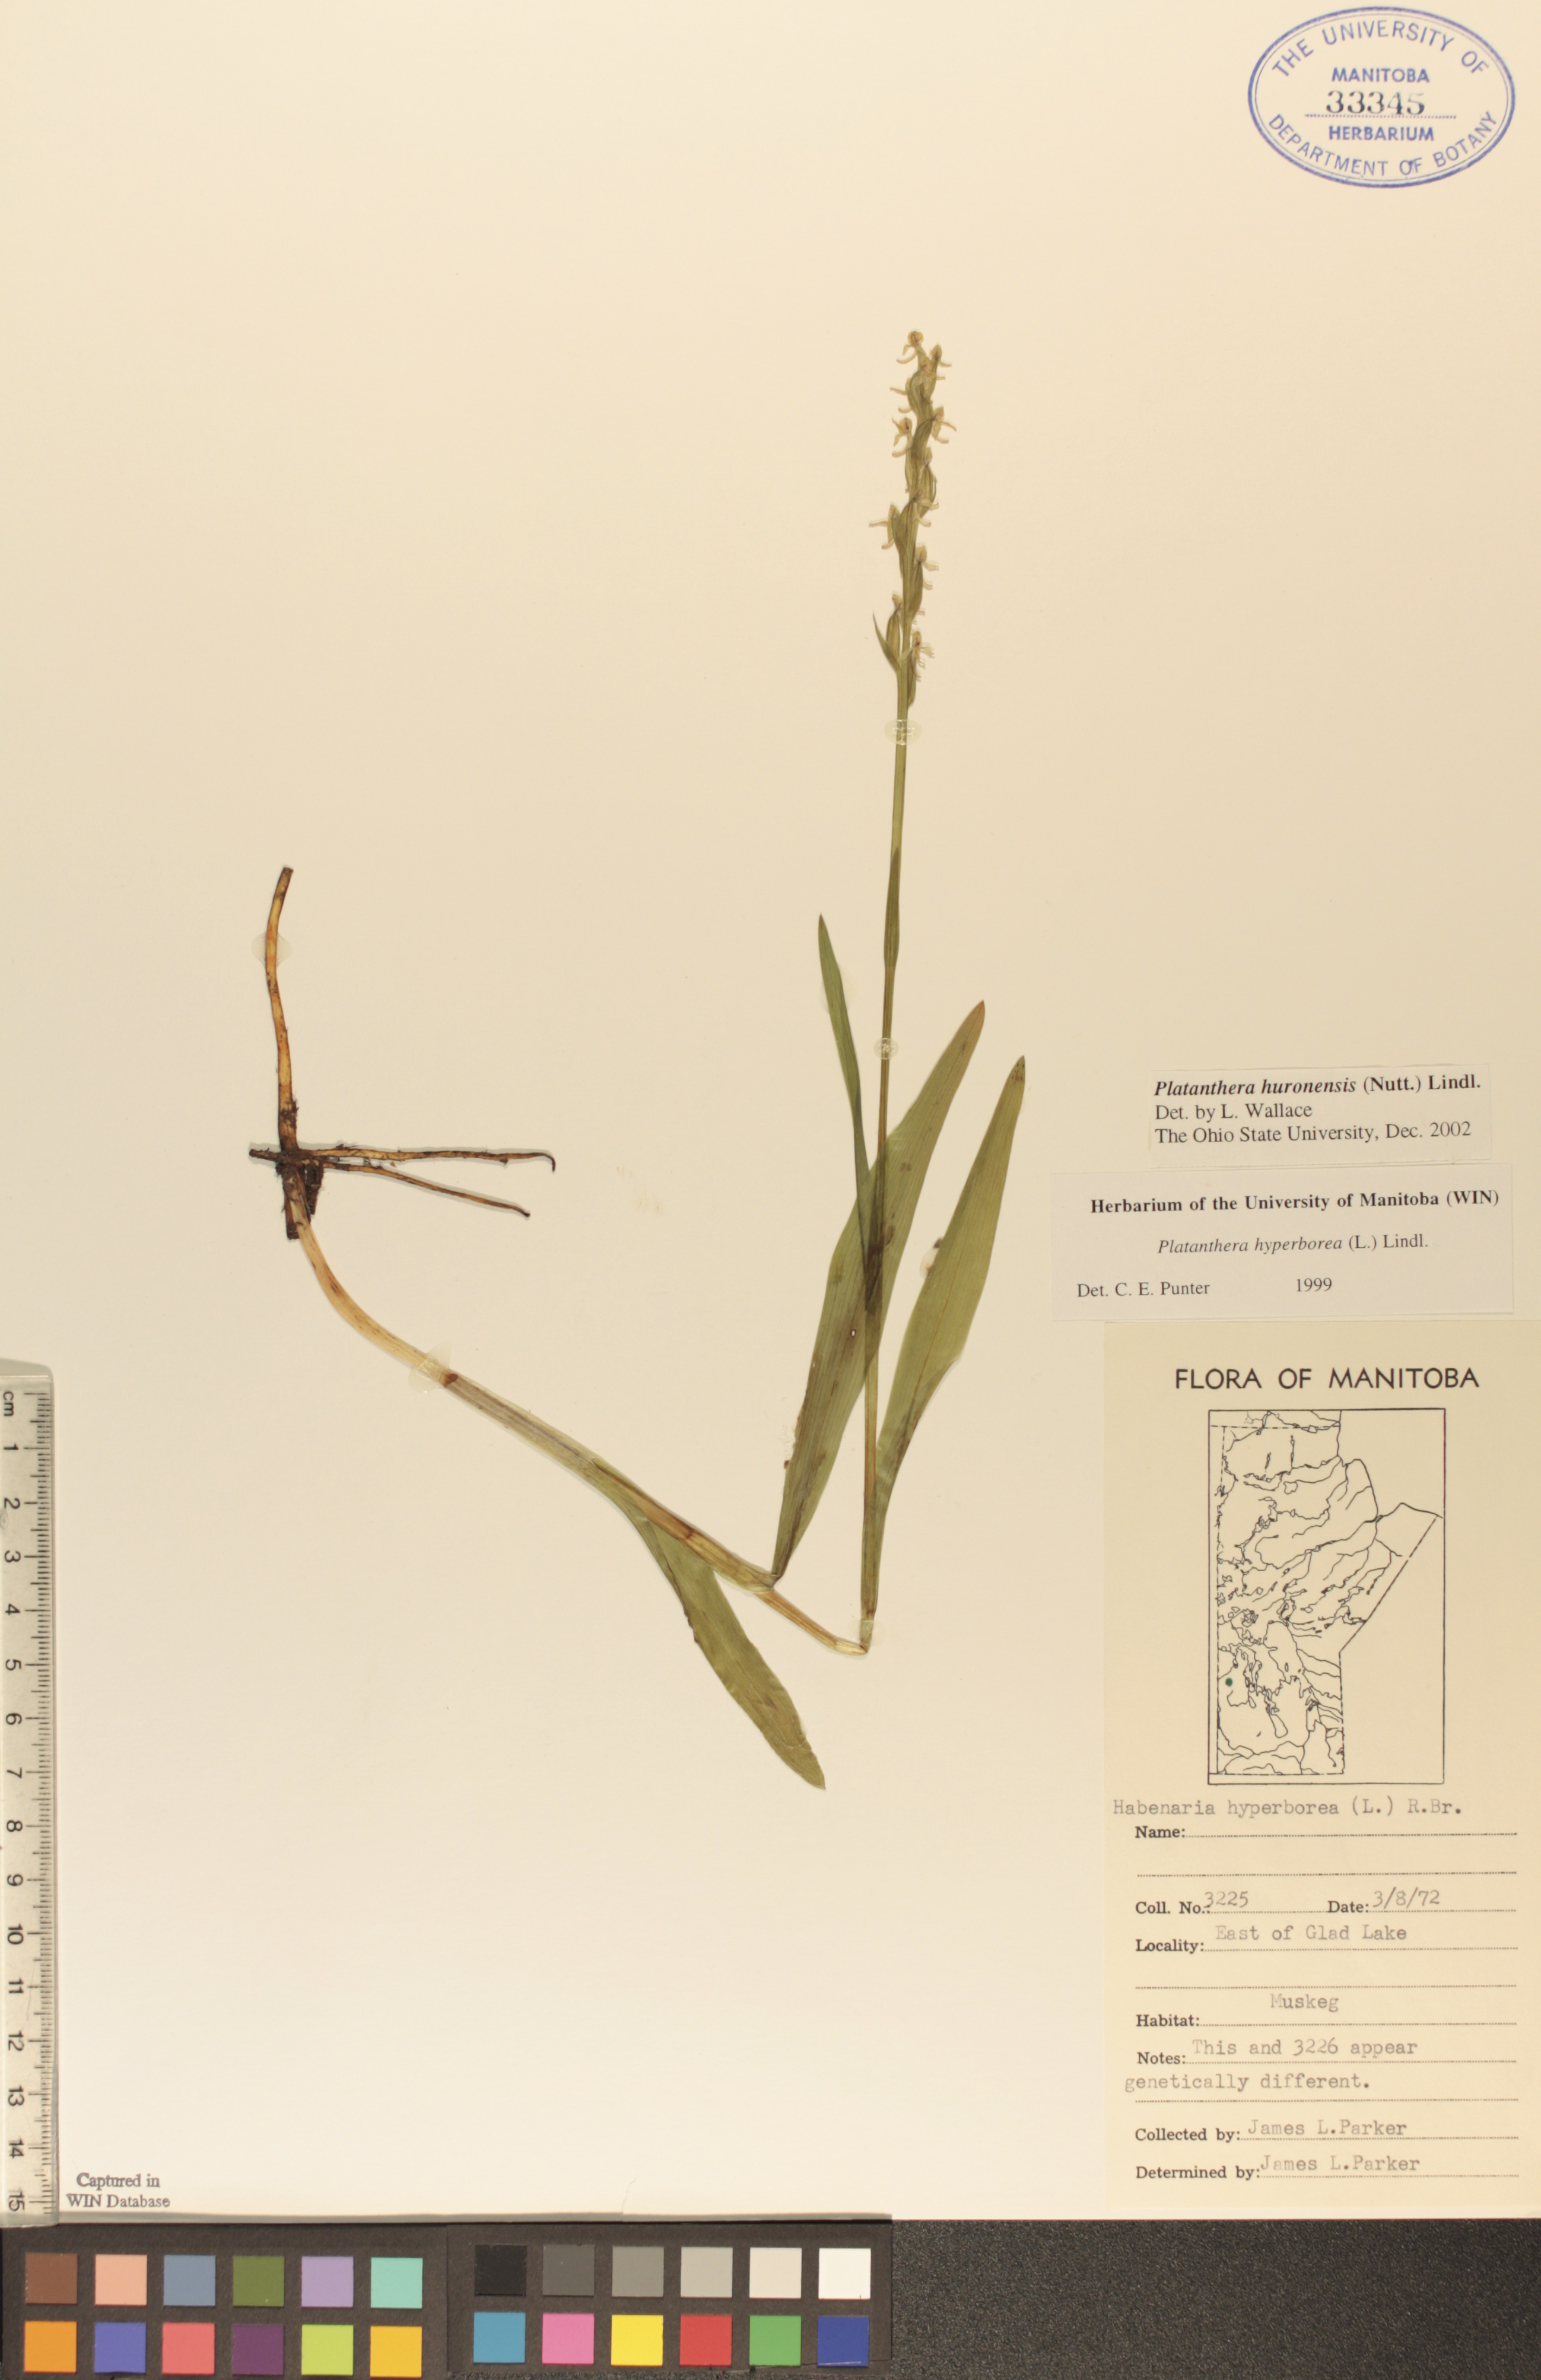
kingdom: Plantae
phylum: Tracheophyta
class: Liliopsida
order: Asparagales
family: Orchidaceae
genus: Platanthera
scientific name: Platanthera huronensis
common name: Fragrant green orchid
